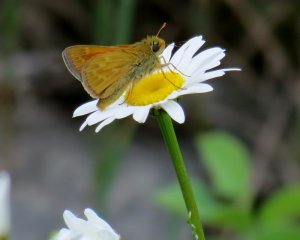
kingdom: Animalia
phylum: Arthropoda
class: Insecta
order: Lepidoptera
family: Hesperiidae
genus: Hesperia
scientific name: Hesperia sassacus
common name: Sassacus Skipper
